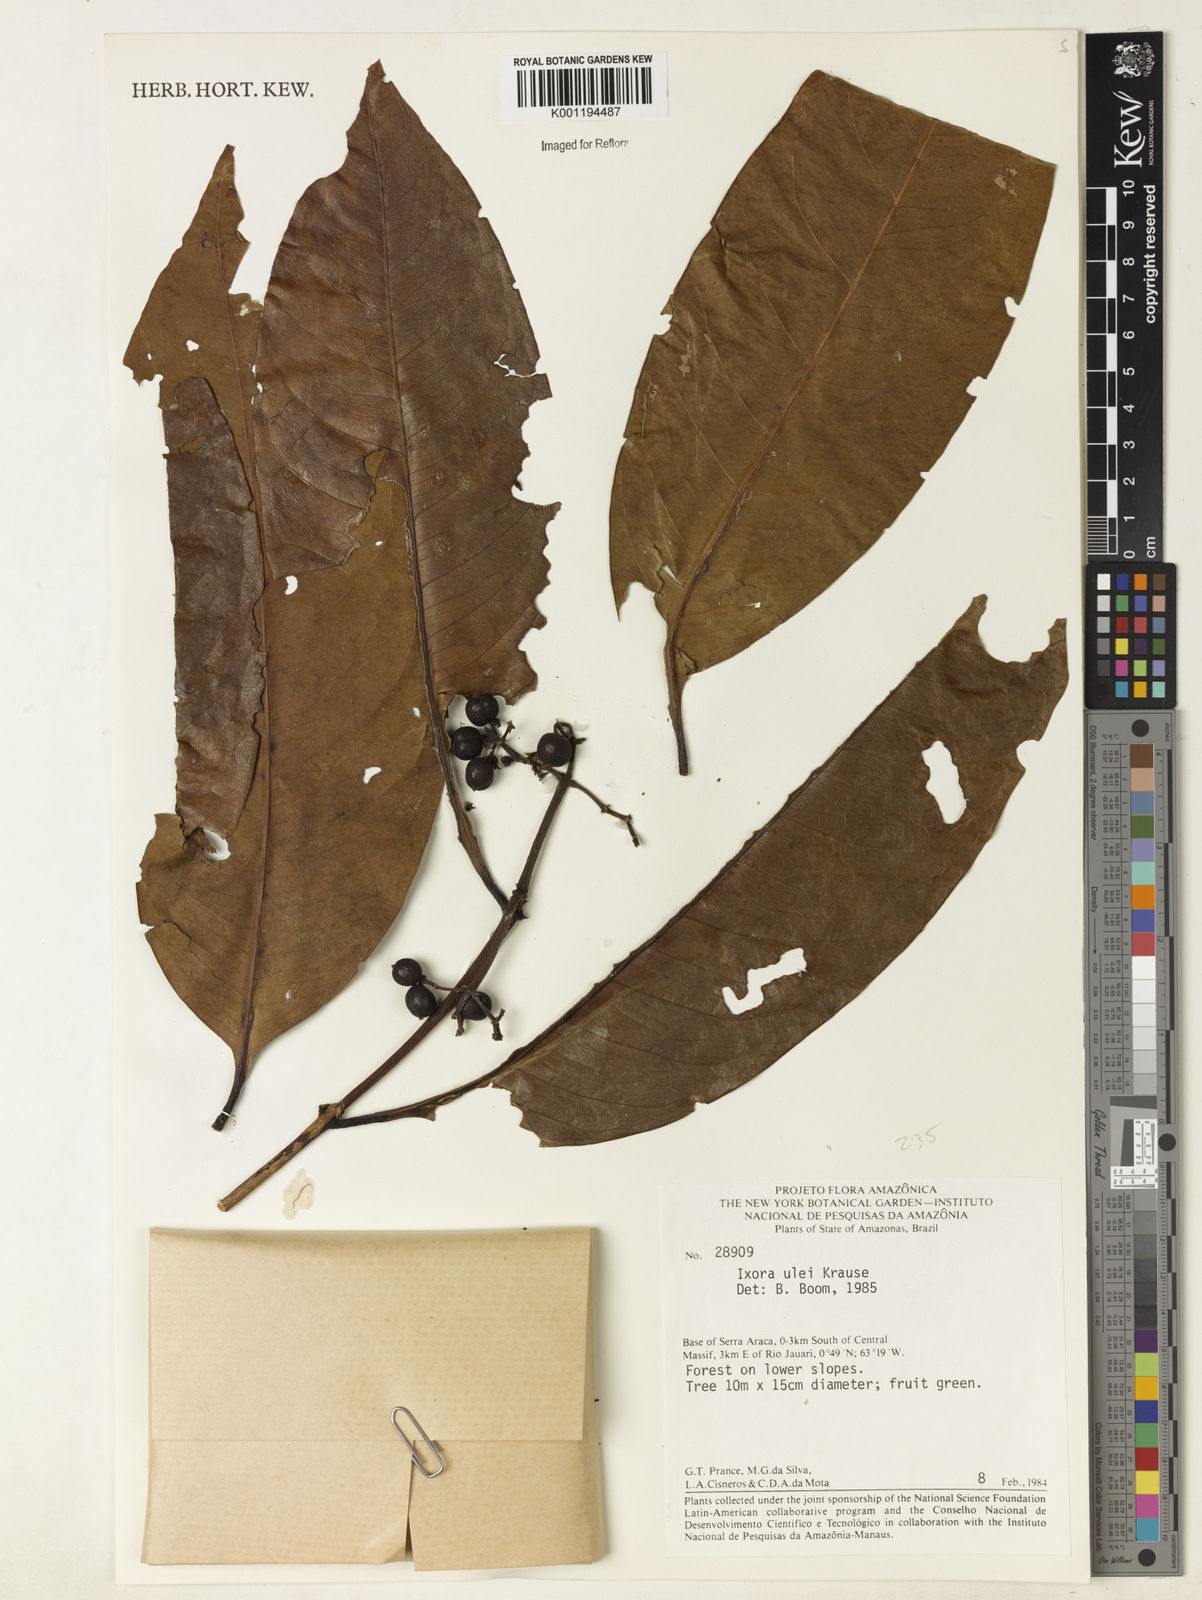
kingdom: Plantae
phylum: Tracheophyta
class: Magnoliopsida
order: Gentianales
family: Rubiaceae
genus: Ixora
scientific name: Ixora sparsifolia
